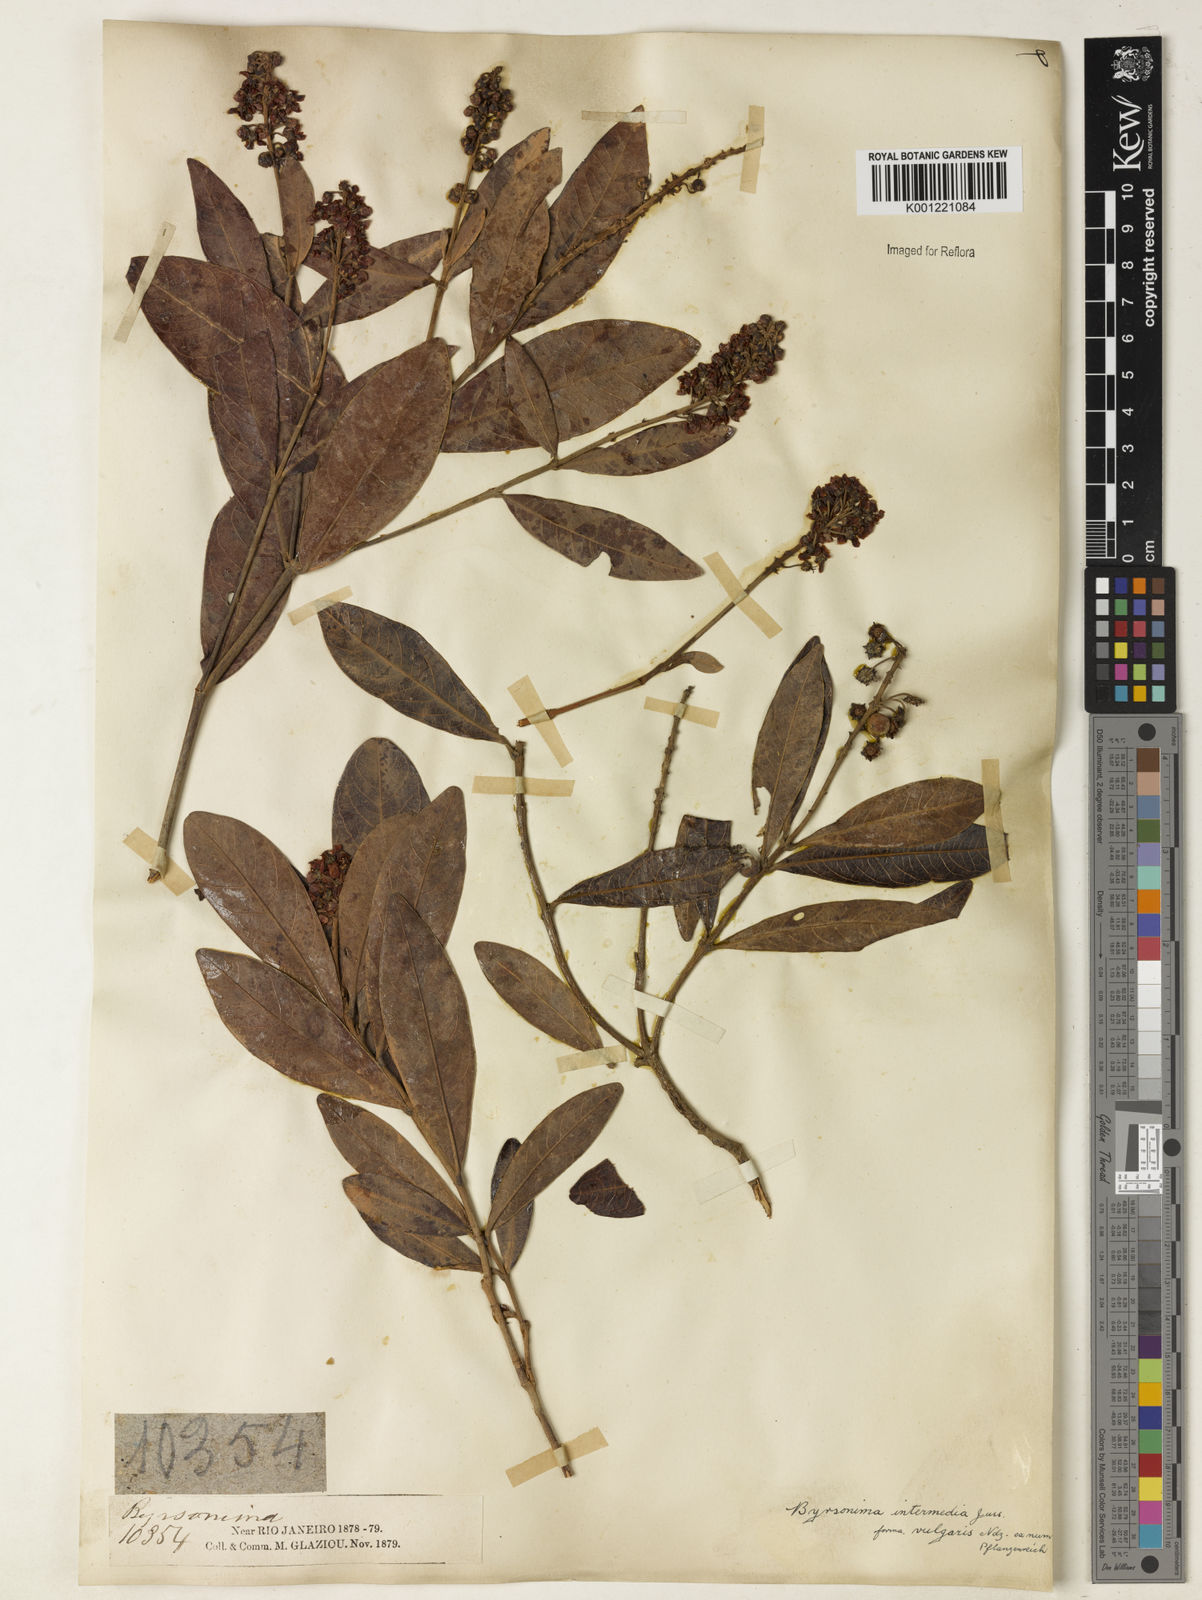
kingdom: Plantae
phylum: Tracheophyta
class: Magnoliopsida
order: Malpighiales
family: Malpighiaceae
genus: Byrsonima
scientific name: Byrsonima intermedia
